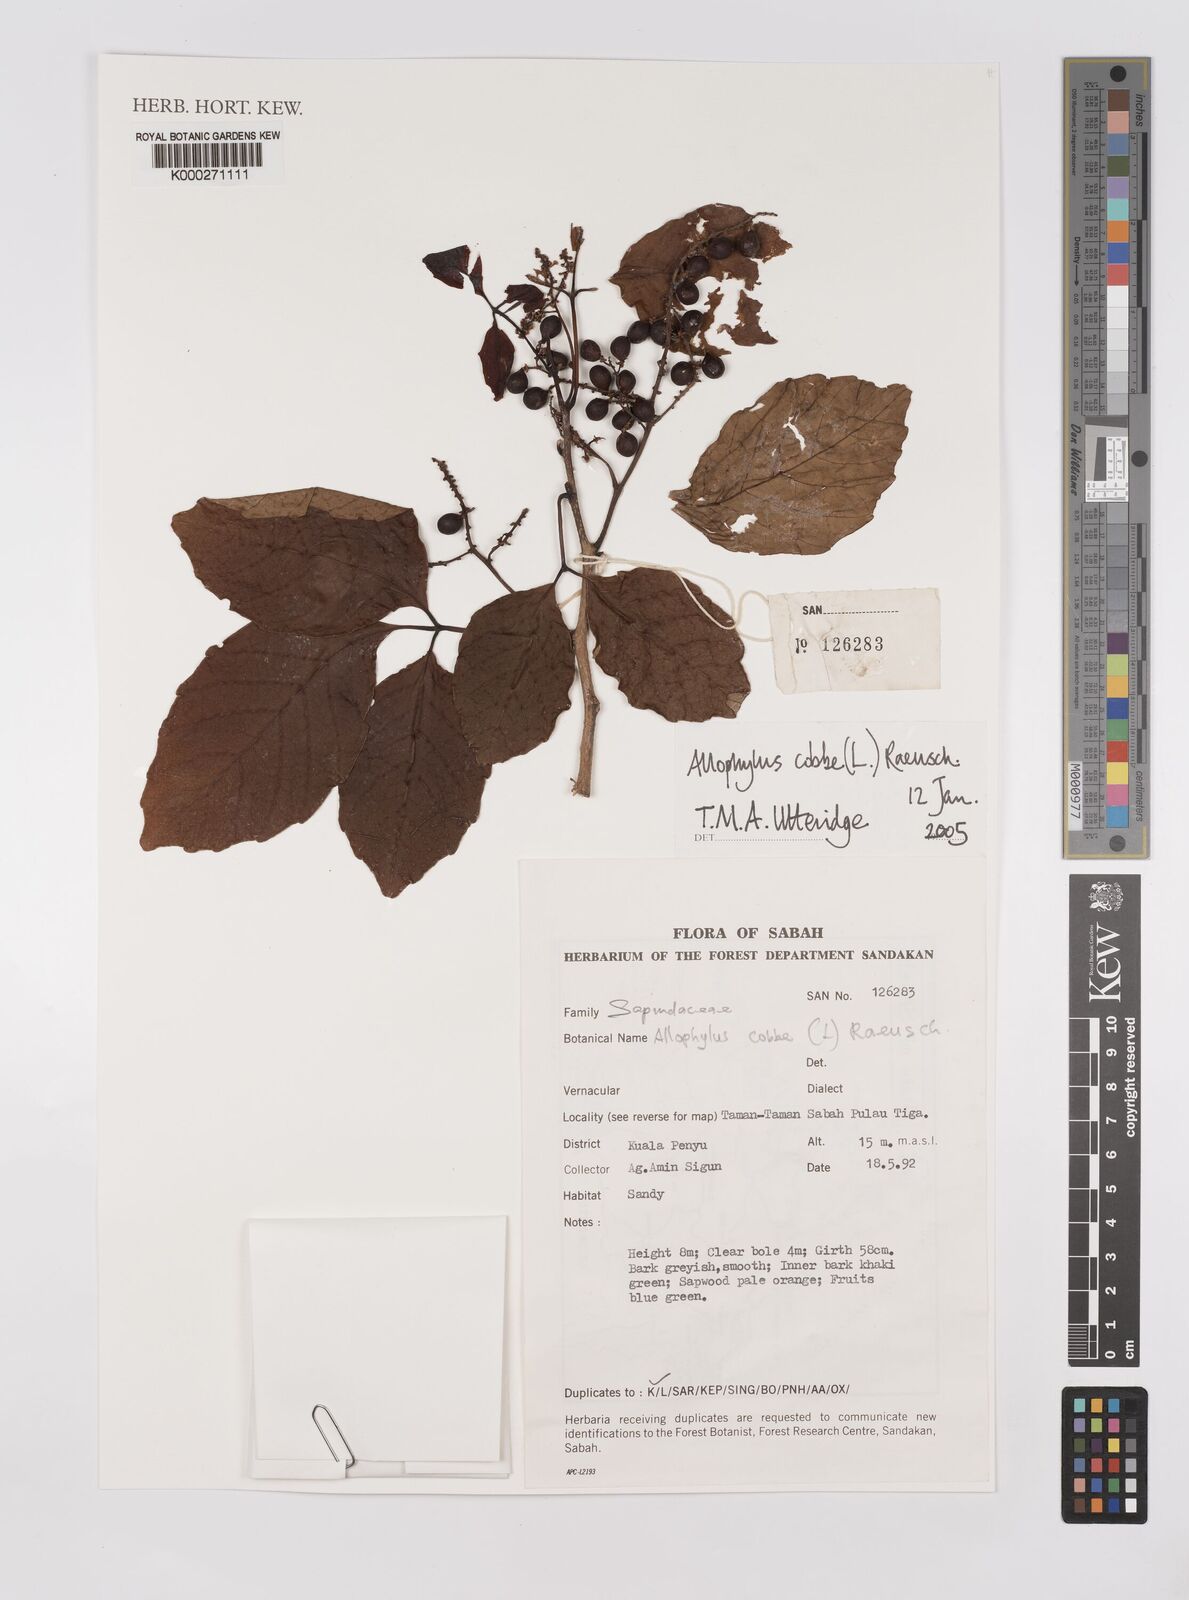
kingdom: Plantae
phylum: Tracheophyta
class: Magnoliopsida
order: Sapindales
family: Sapindaceae
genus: Allophylus
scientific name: Allophylus
